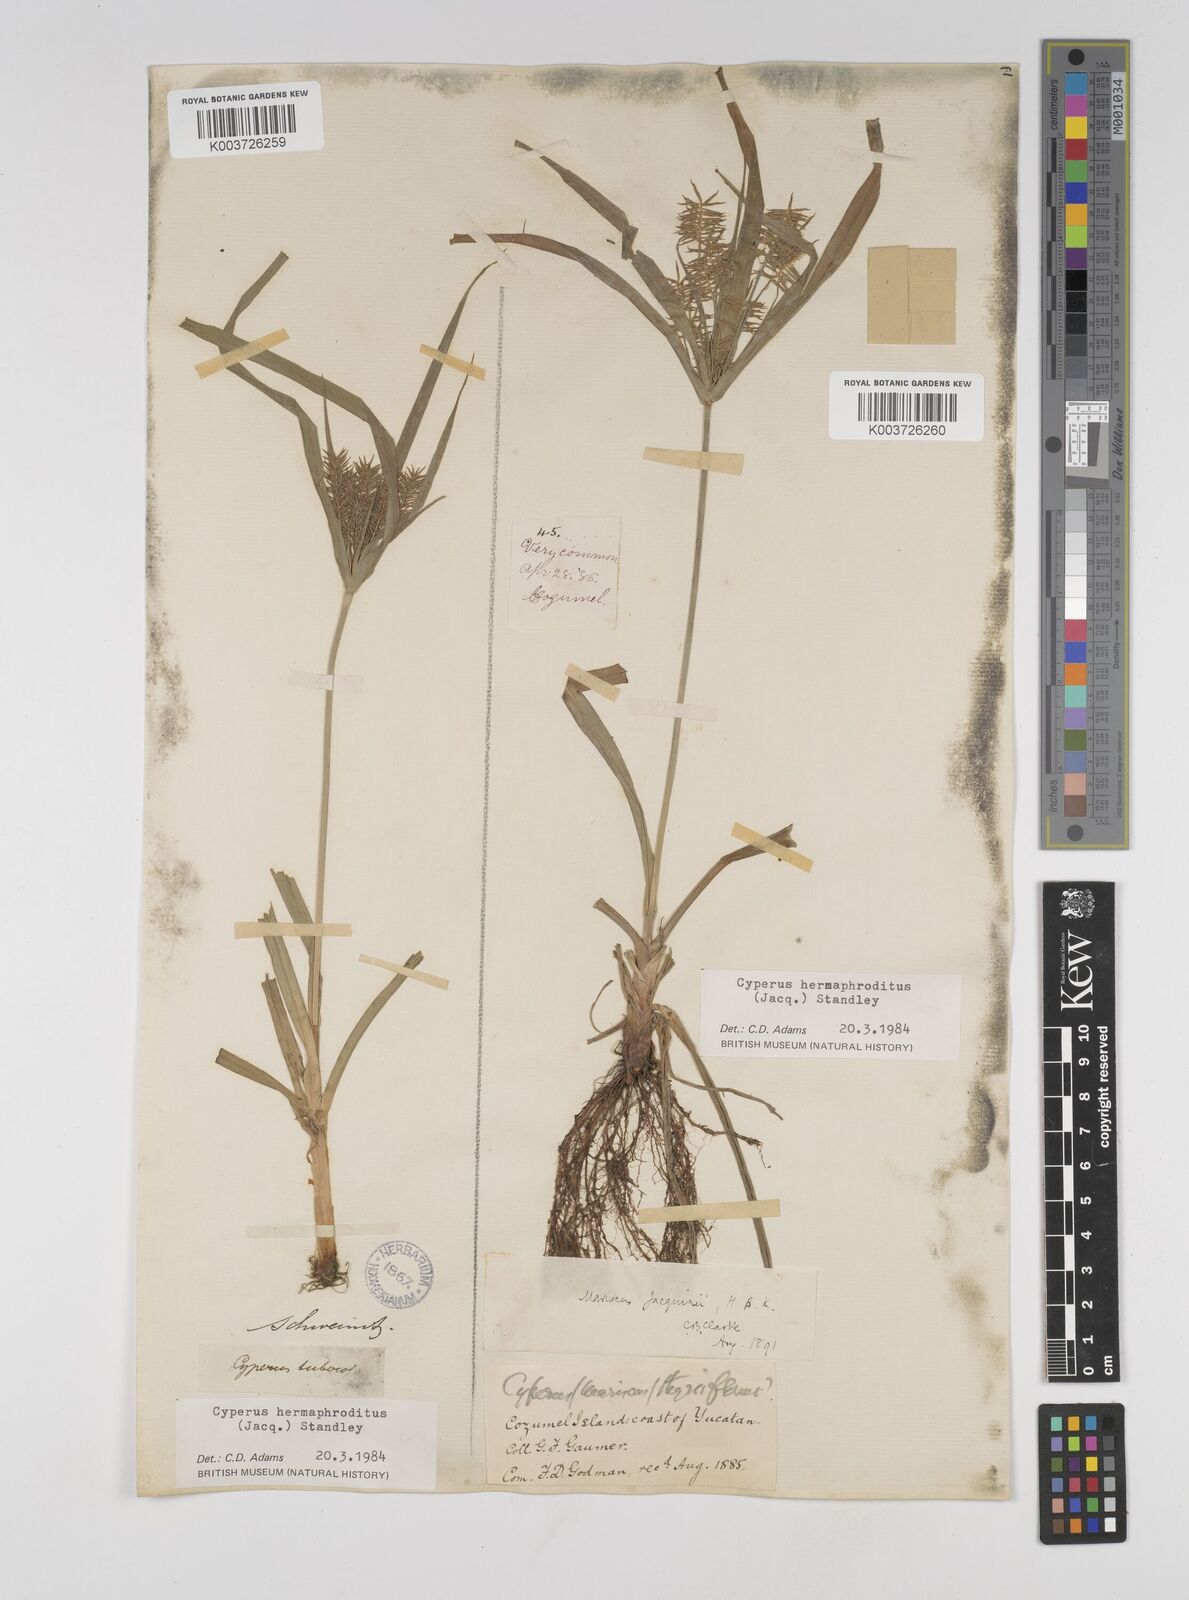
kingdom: Plantae
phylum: Tracheophyta
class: Liliopsida
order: Poales
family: Cyperaceae
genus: Cyperus
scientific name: Cyperus nutans
